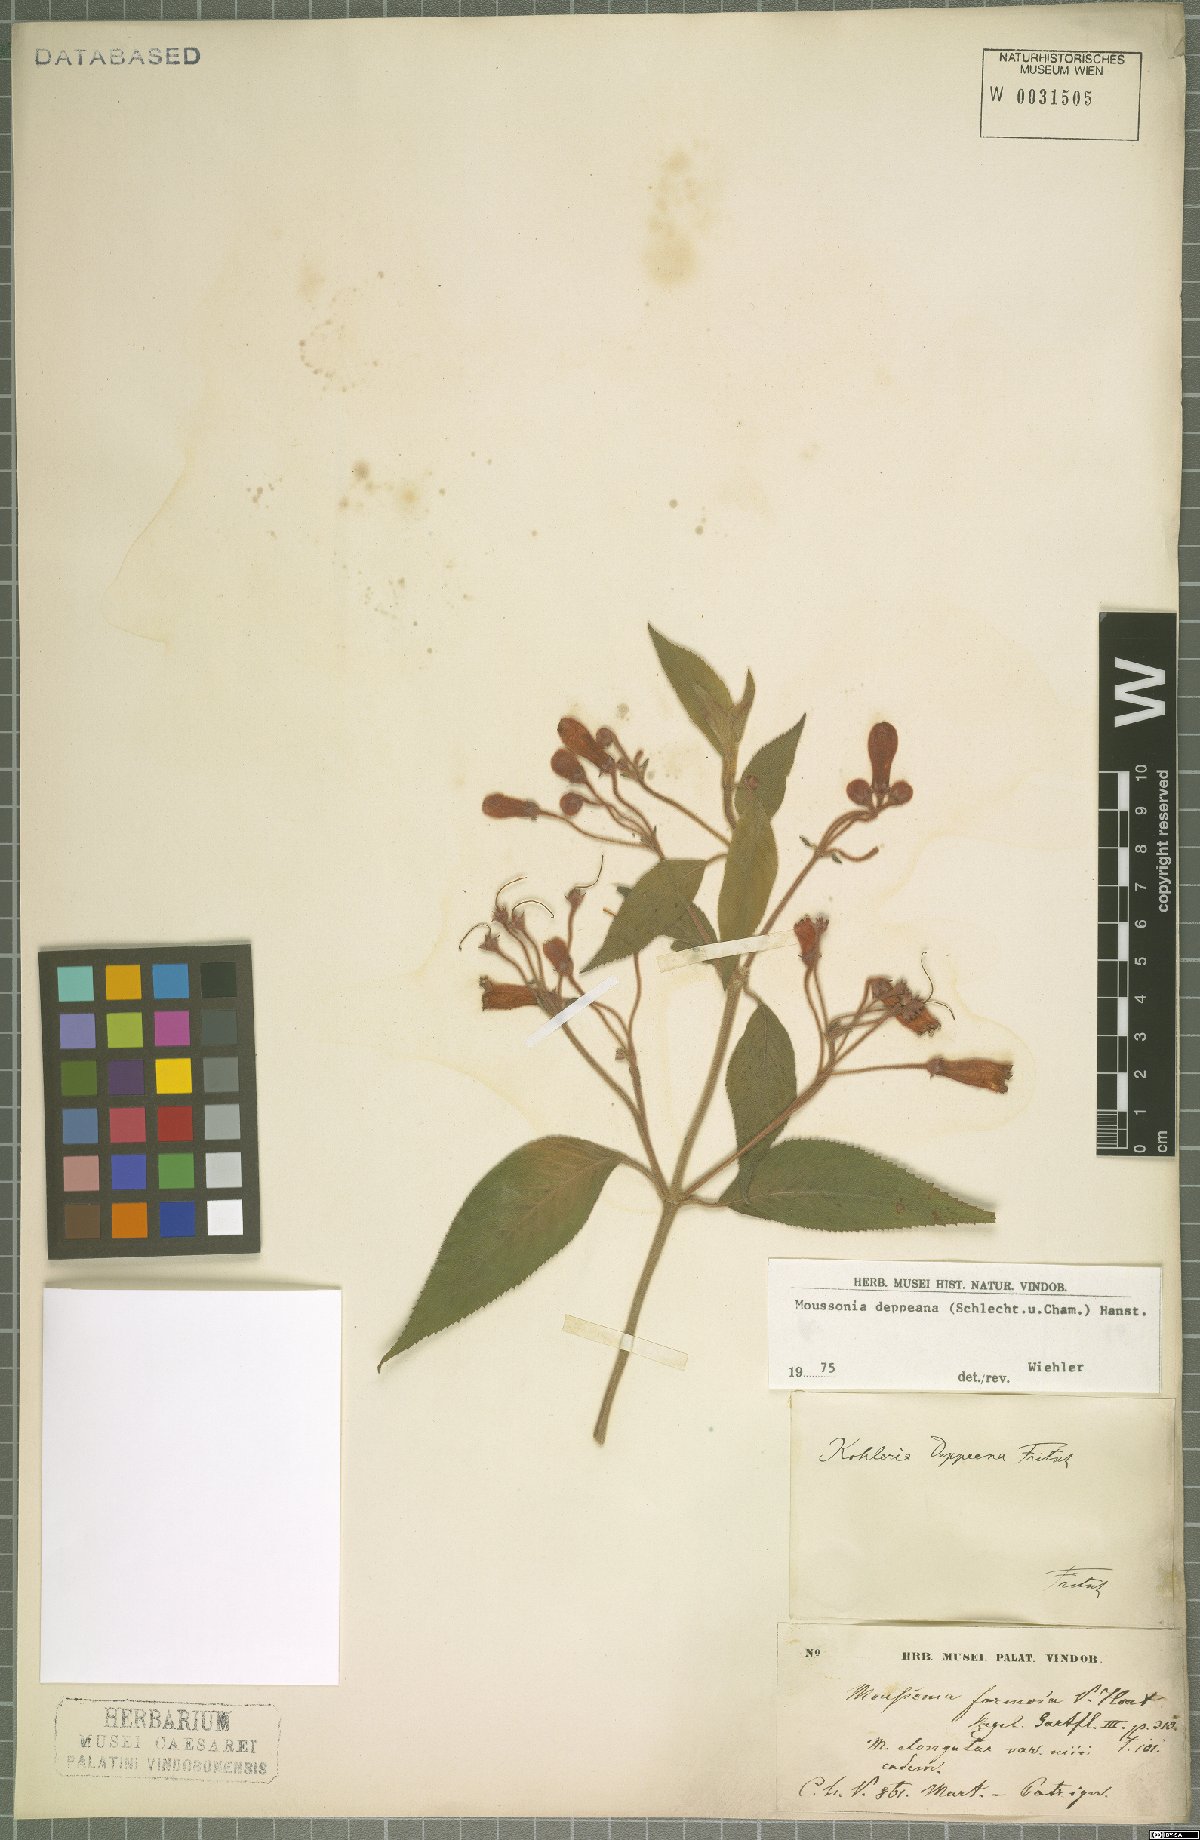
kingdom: Plantae
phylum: Tracheophyta
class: Magnoliopsida
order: Lamiales
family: Gesneriaceae
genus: Moussonia
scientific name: Moussonia deppeana
